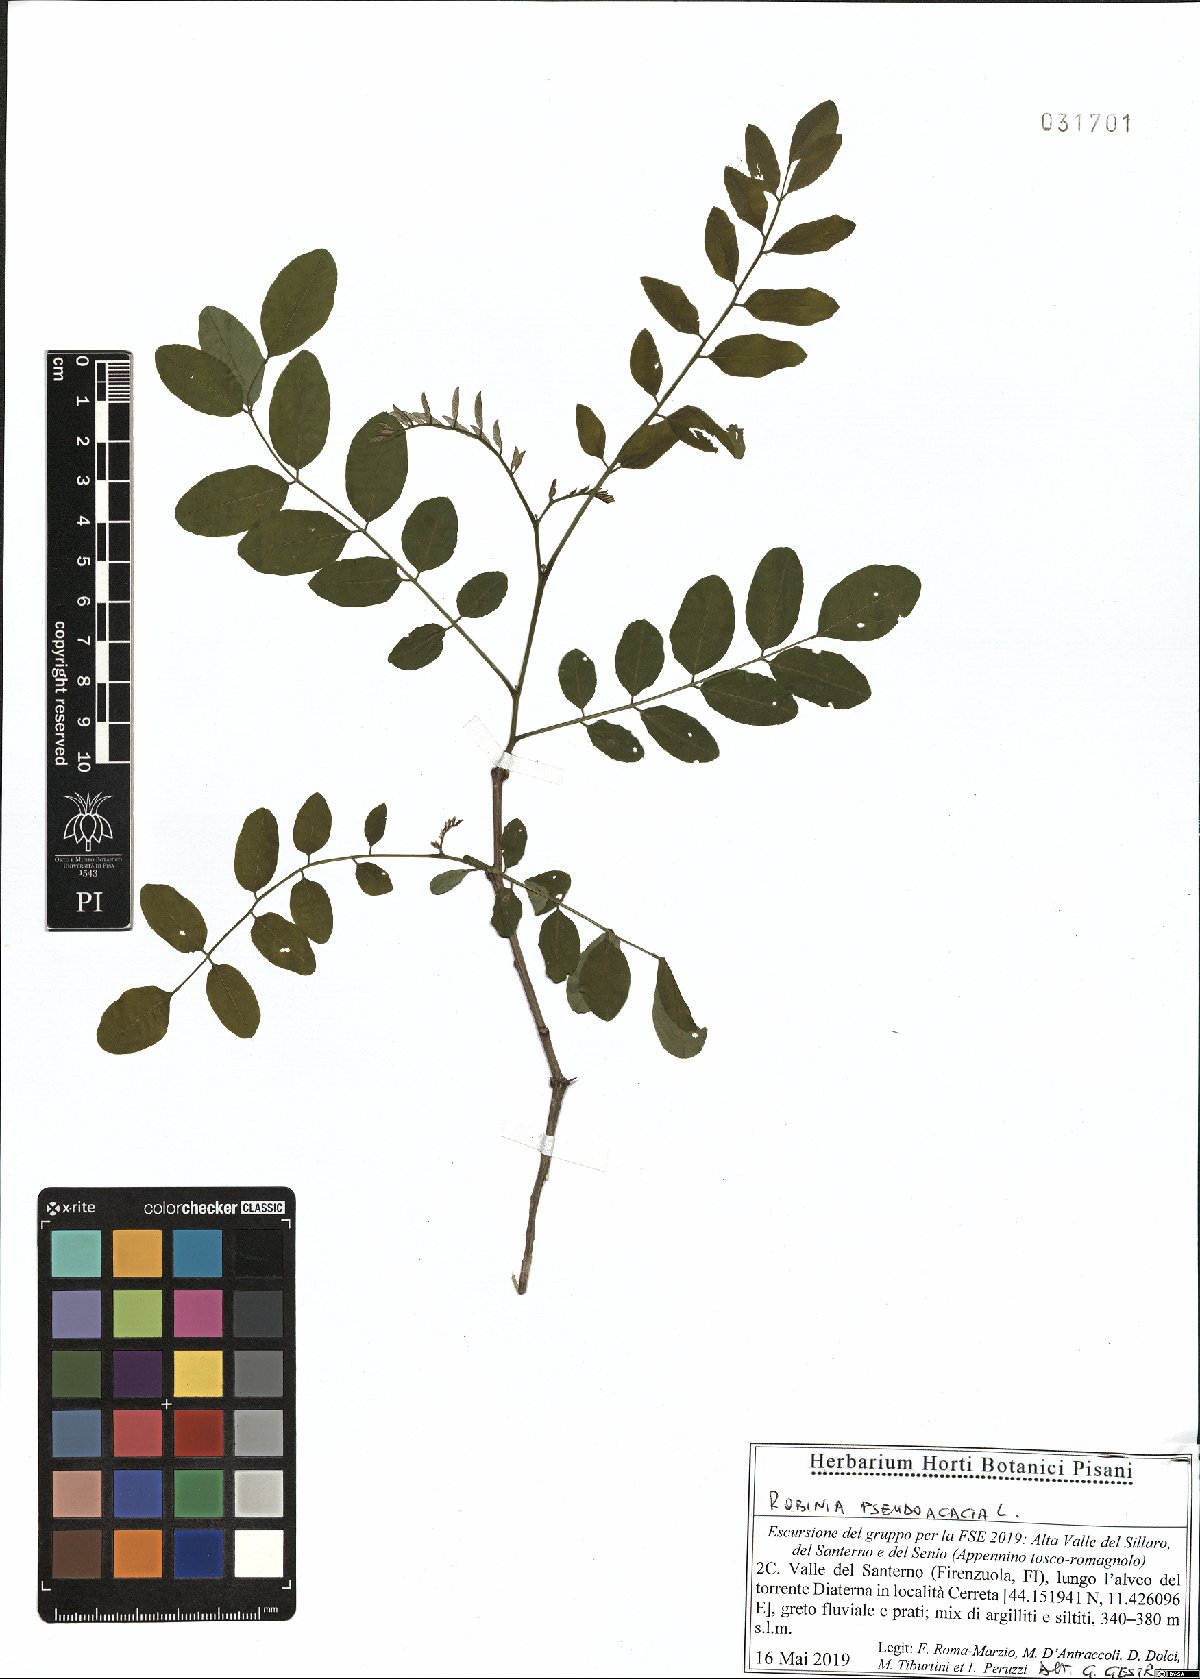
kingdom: Plantae
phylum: Tracheophyta
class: Magnoliopsida
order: Fabales
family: Fabaceae
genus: Robinia
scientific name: Robinia pseudoacacia
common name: Black locust
